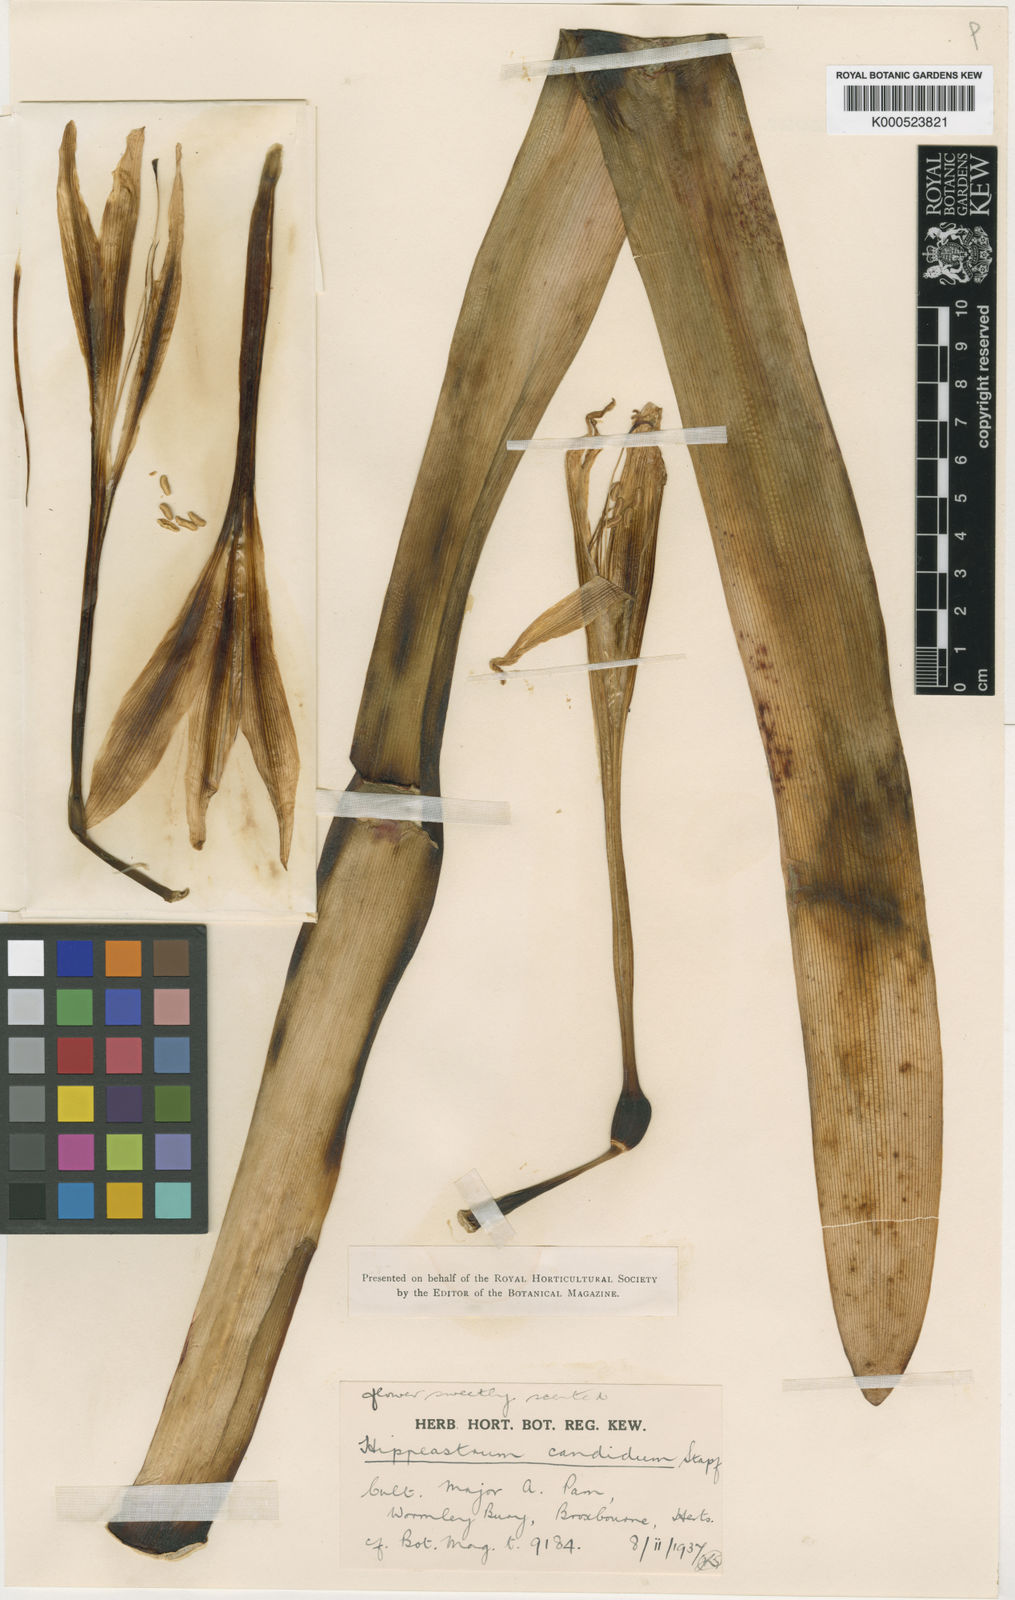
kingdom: Plantae
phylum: Tracheophyta
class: Liliopsida
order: Asparagales
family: Amaryllidaceae
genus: Hippeastrum
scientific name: Hippeastrum argentinum
